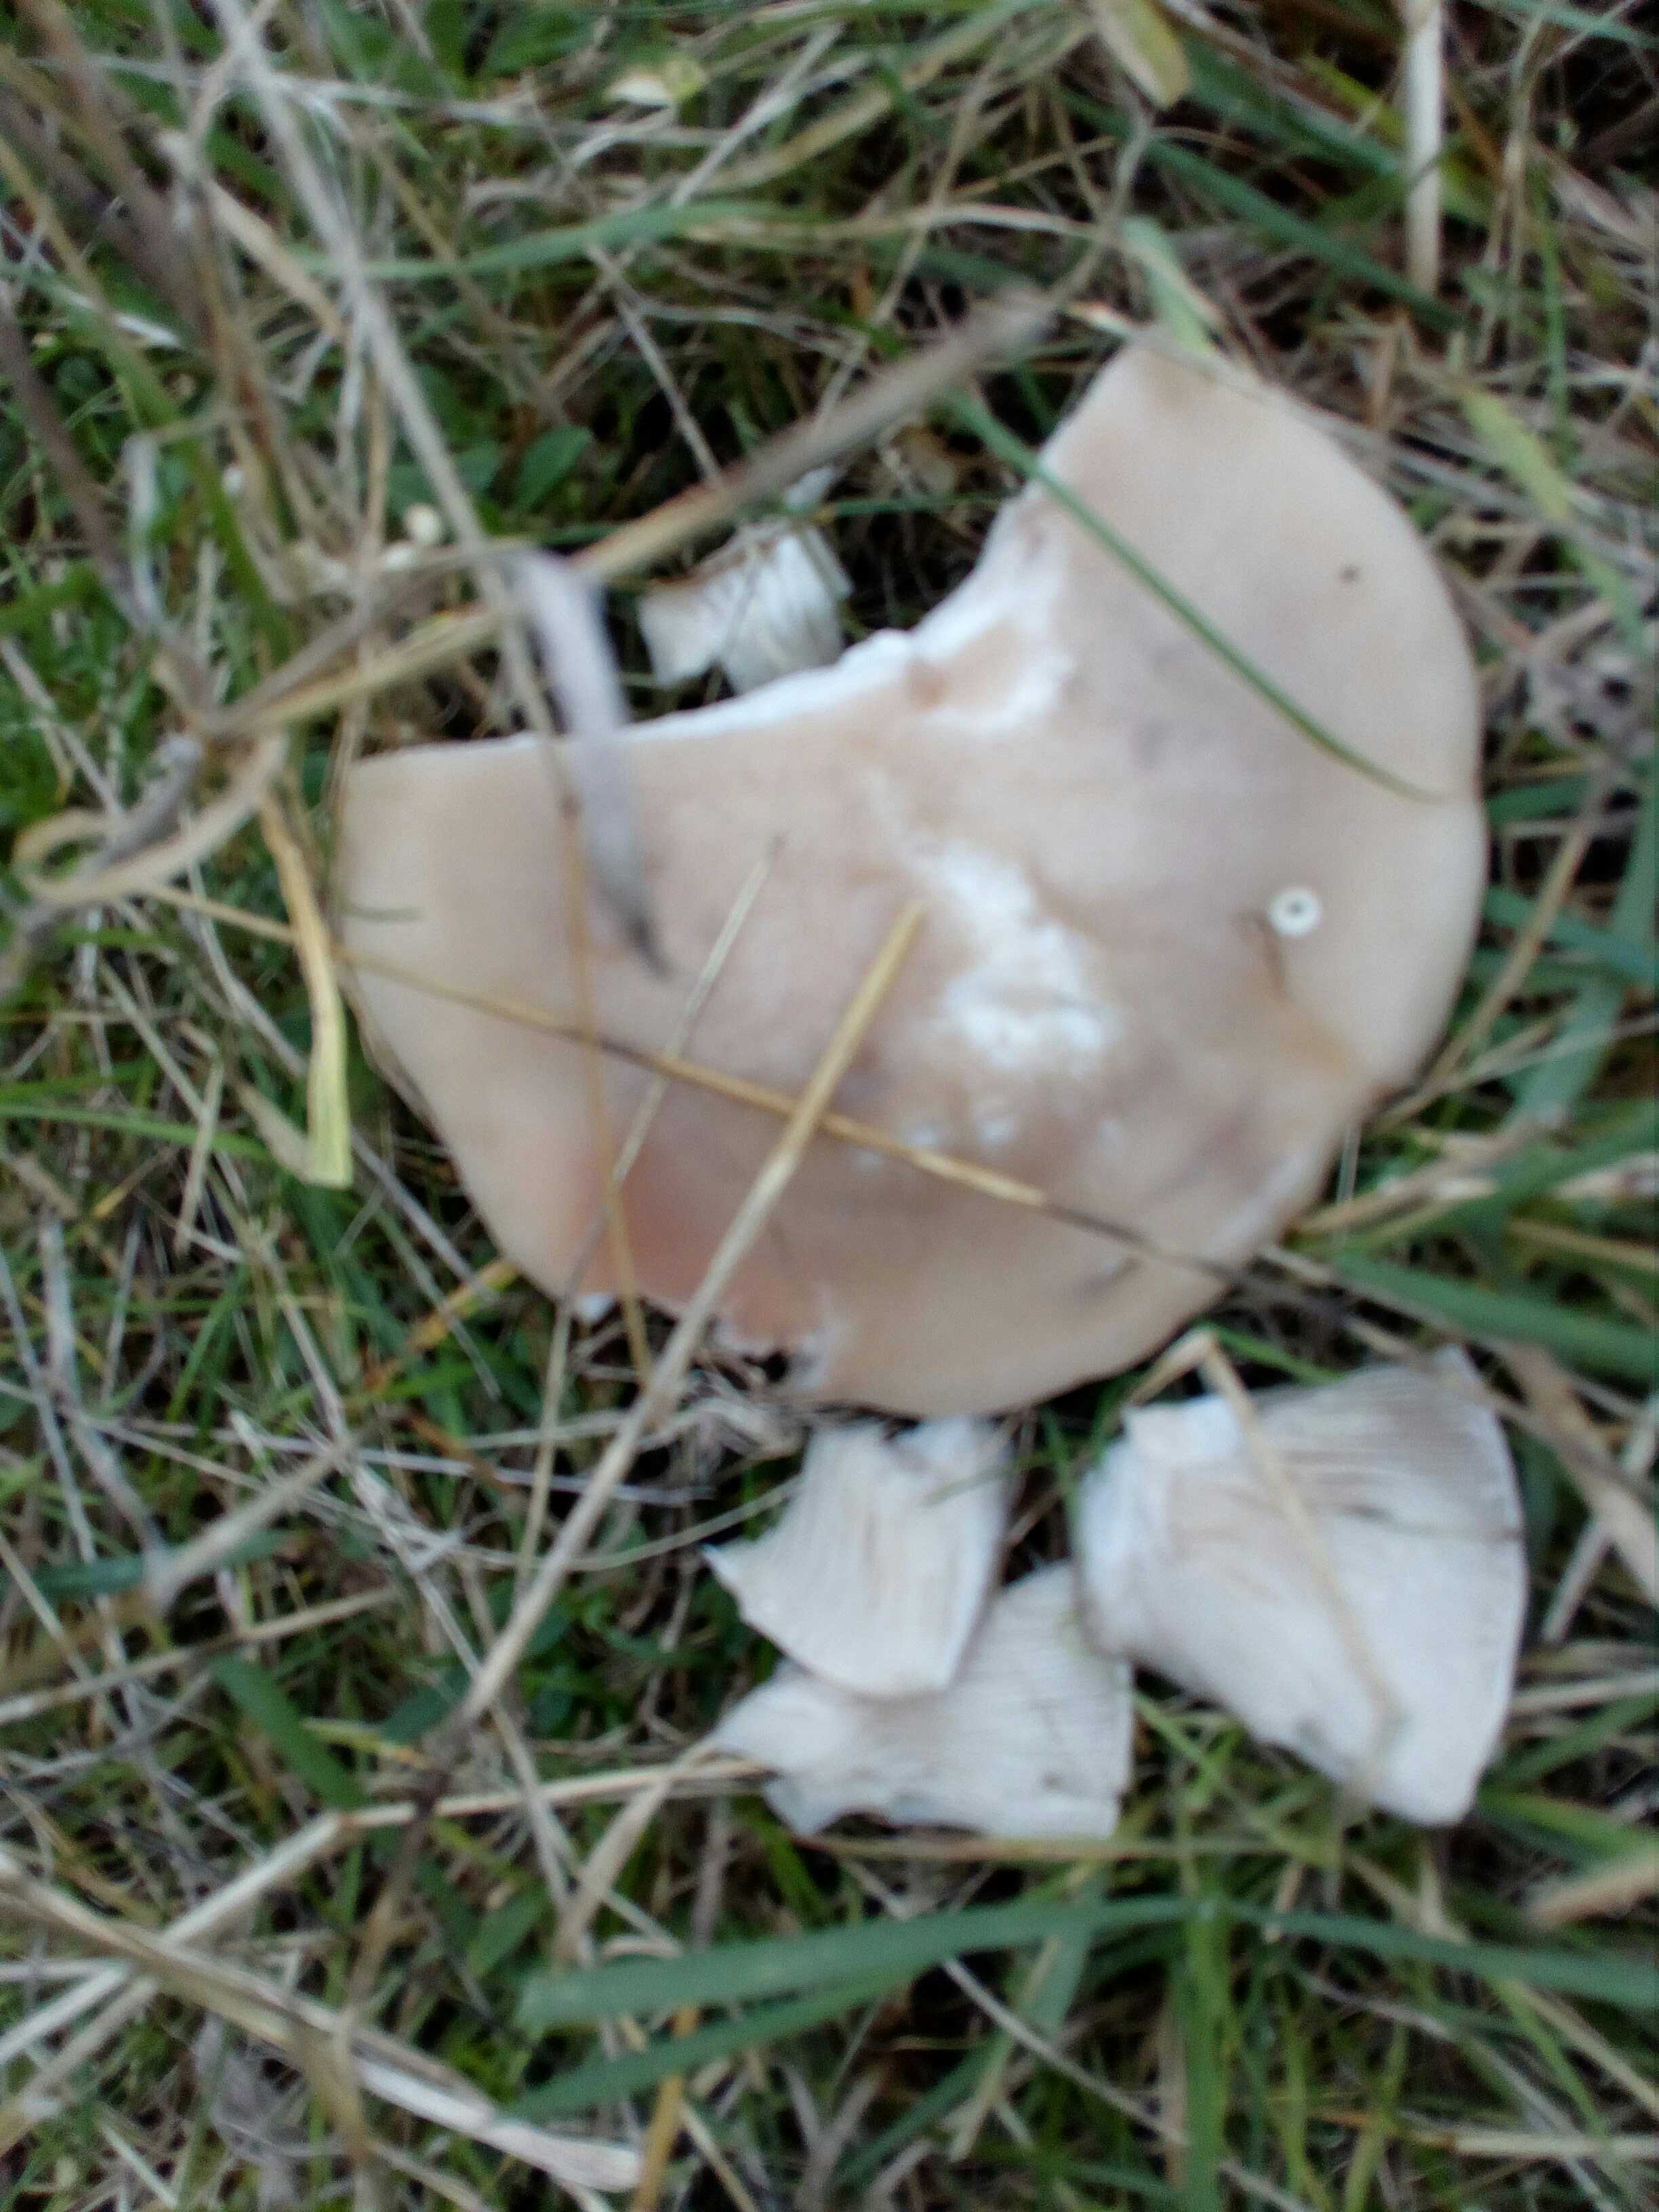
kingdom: Fungi
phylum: Basidiomycota
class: Agaricomycetes
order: Agaricales
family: Tricholomataceae
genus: Lepista
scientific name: Lepista personata
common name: bleg hekseringshat
